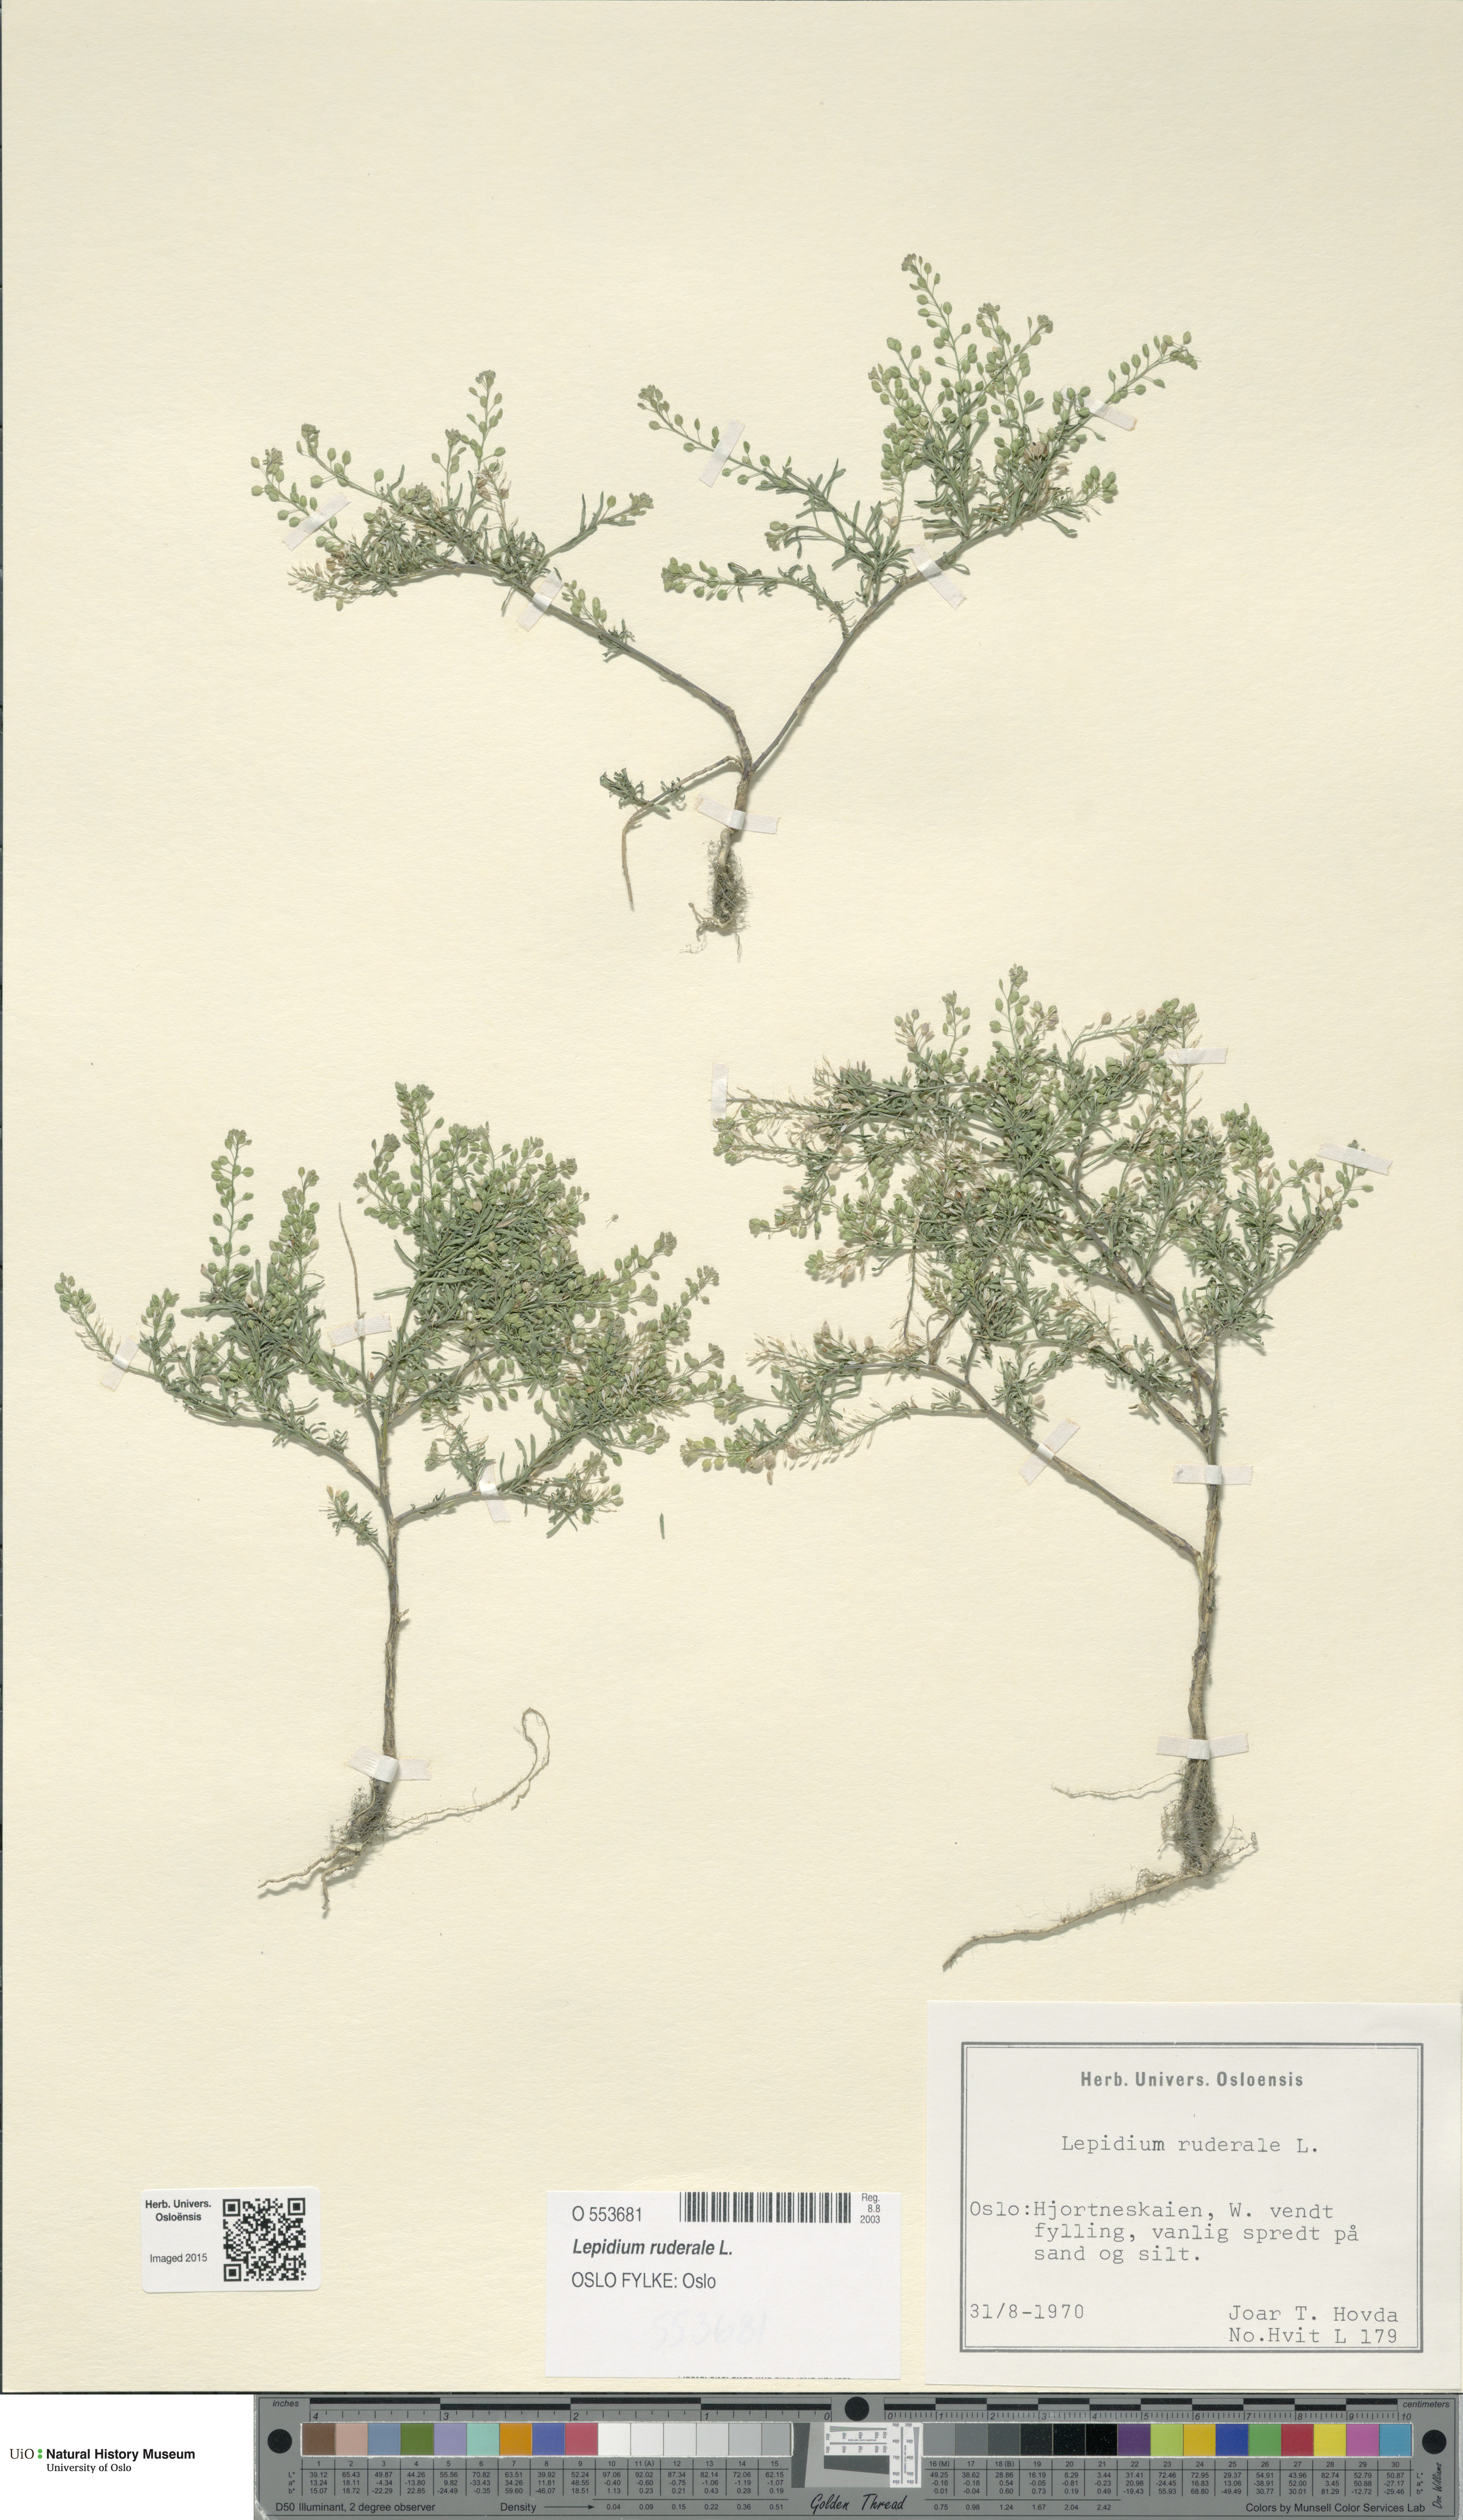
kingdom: Plantae
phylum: Tracheophyta
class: Magnoliopsida
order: Brassicales
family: Brassicaceae
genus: Lepidium
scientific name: Lepidium ruderale
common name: Narrow-leaved pepperwort
